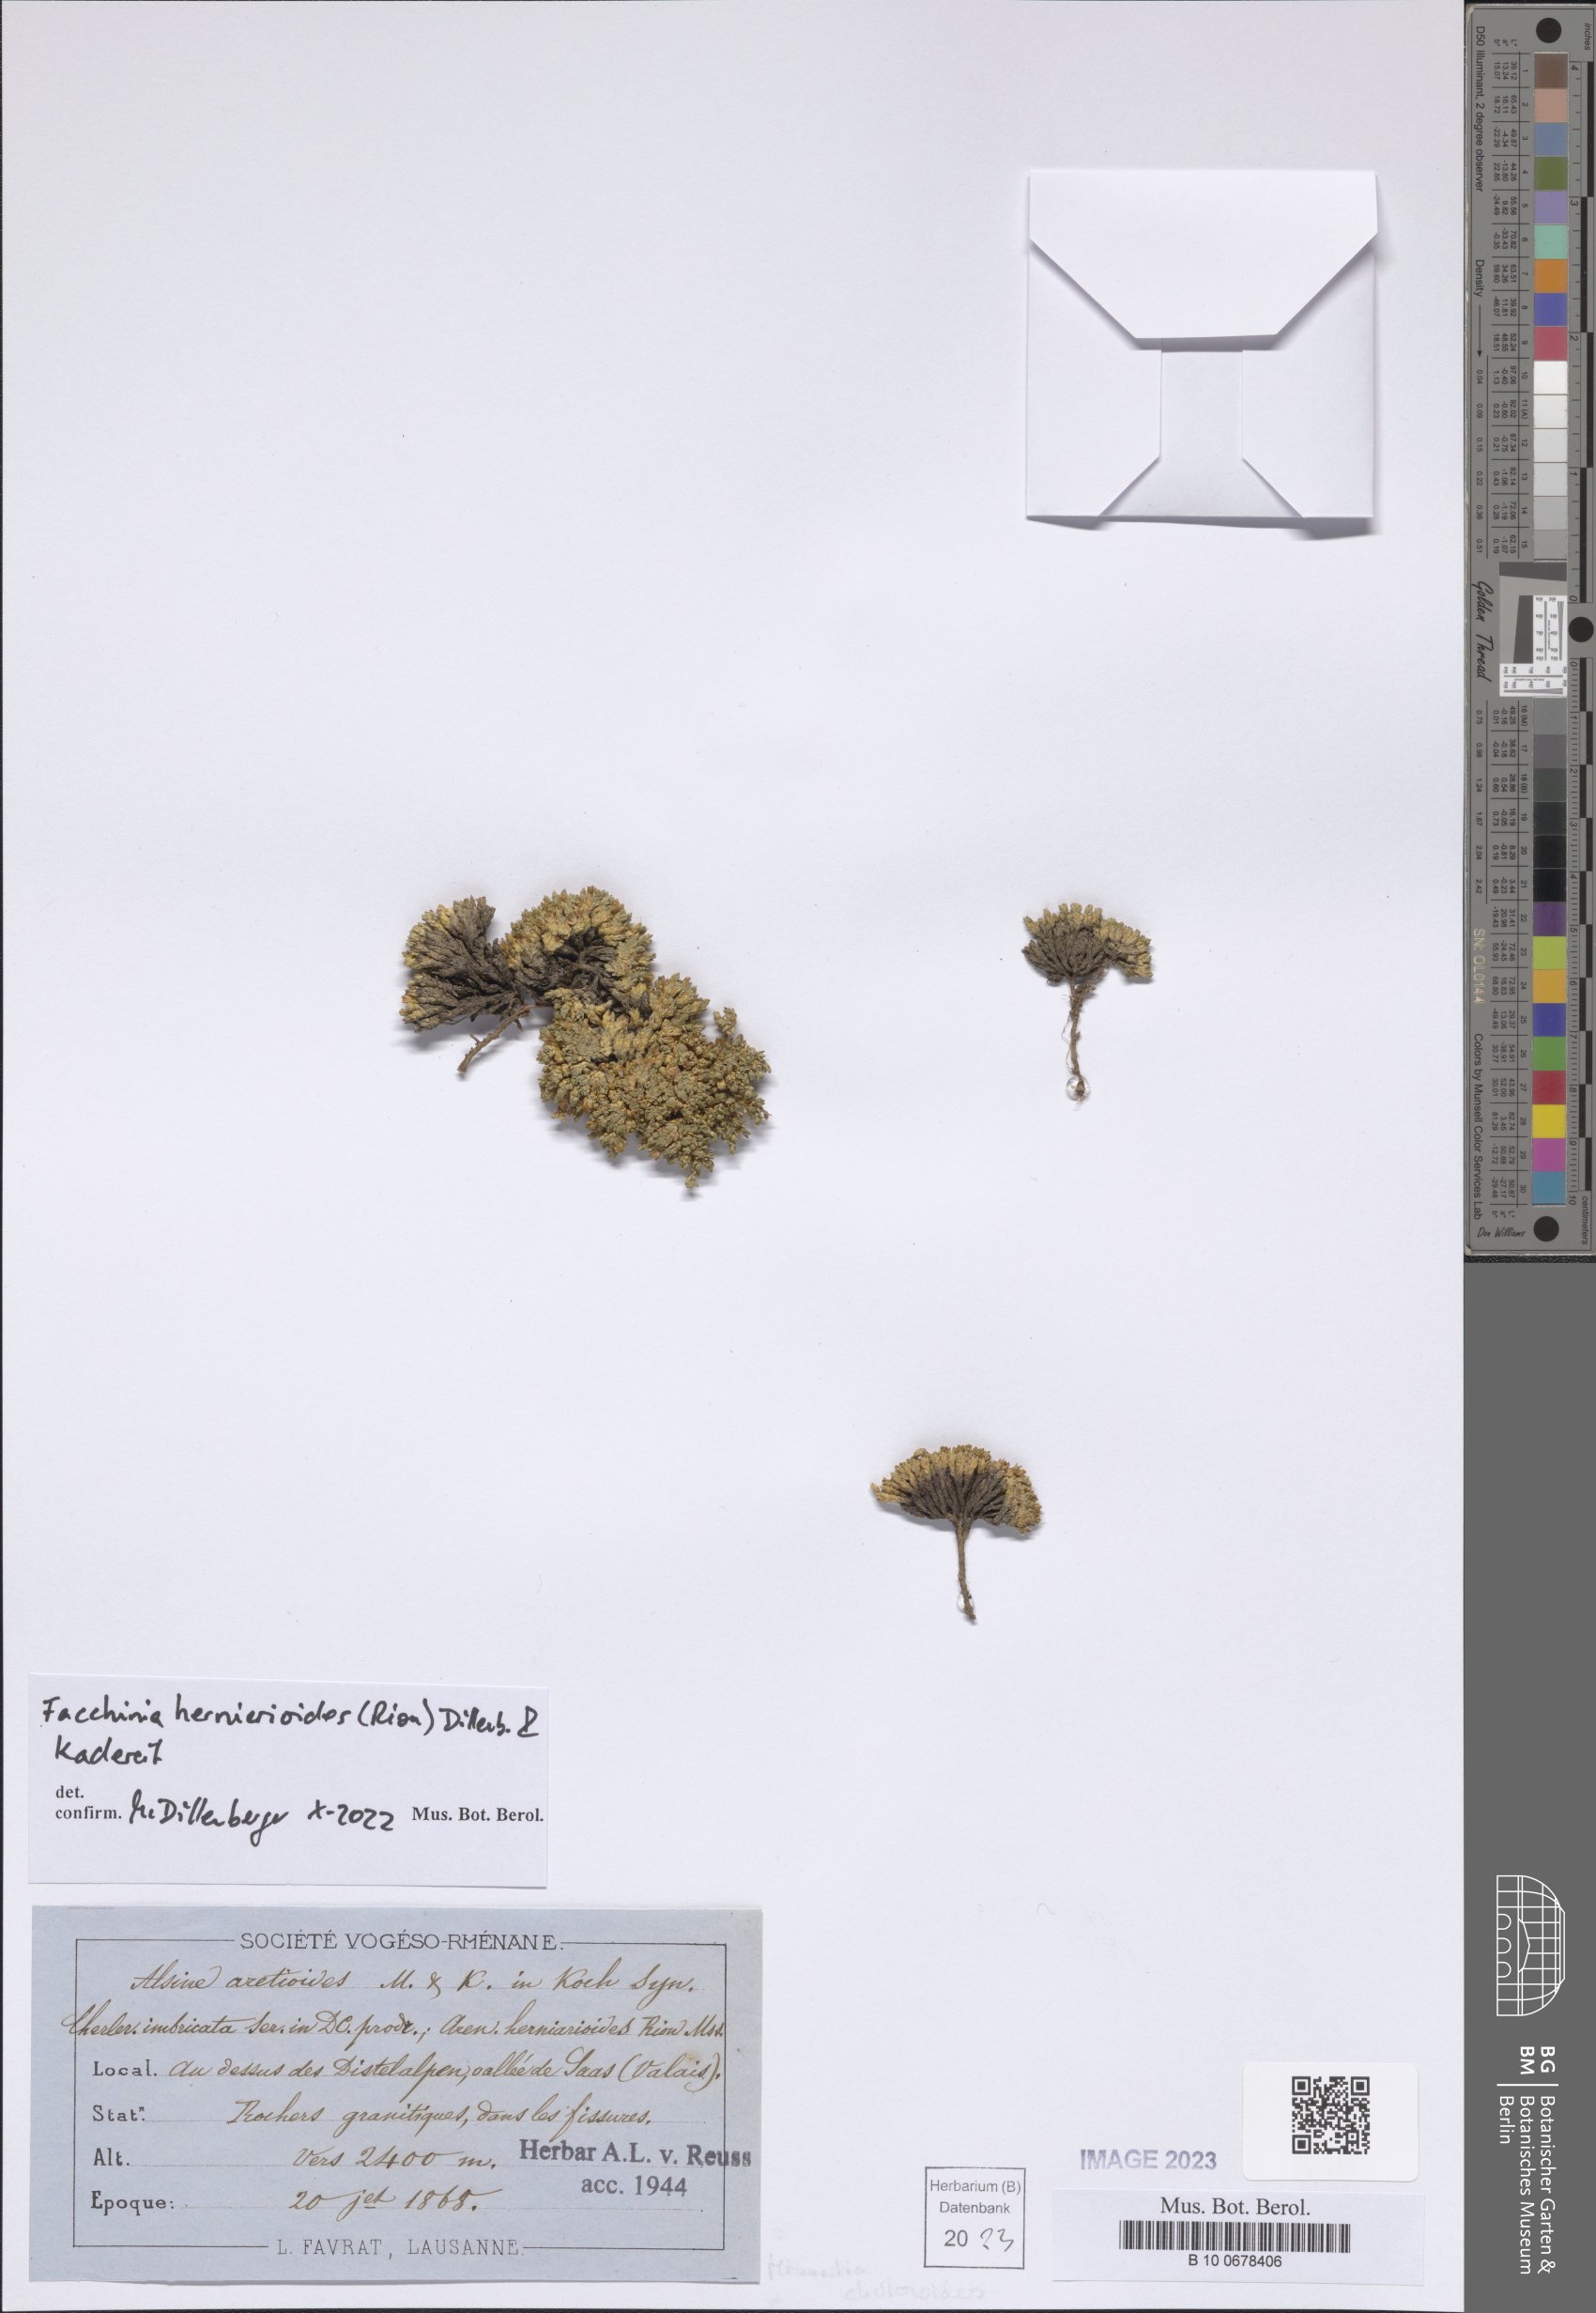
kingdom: Plantae
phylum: Tracheophyta
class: Magnoliopsida
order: Caryophyllales
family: Caryophyllaceae
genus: Facchinia
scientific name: Facchinia herniarioides
